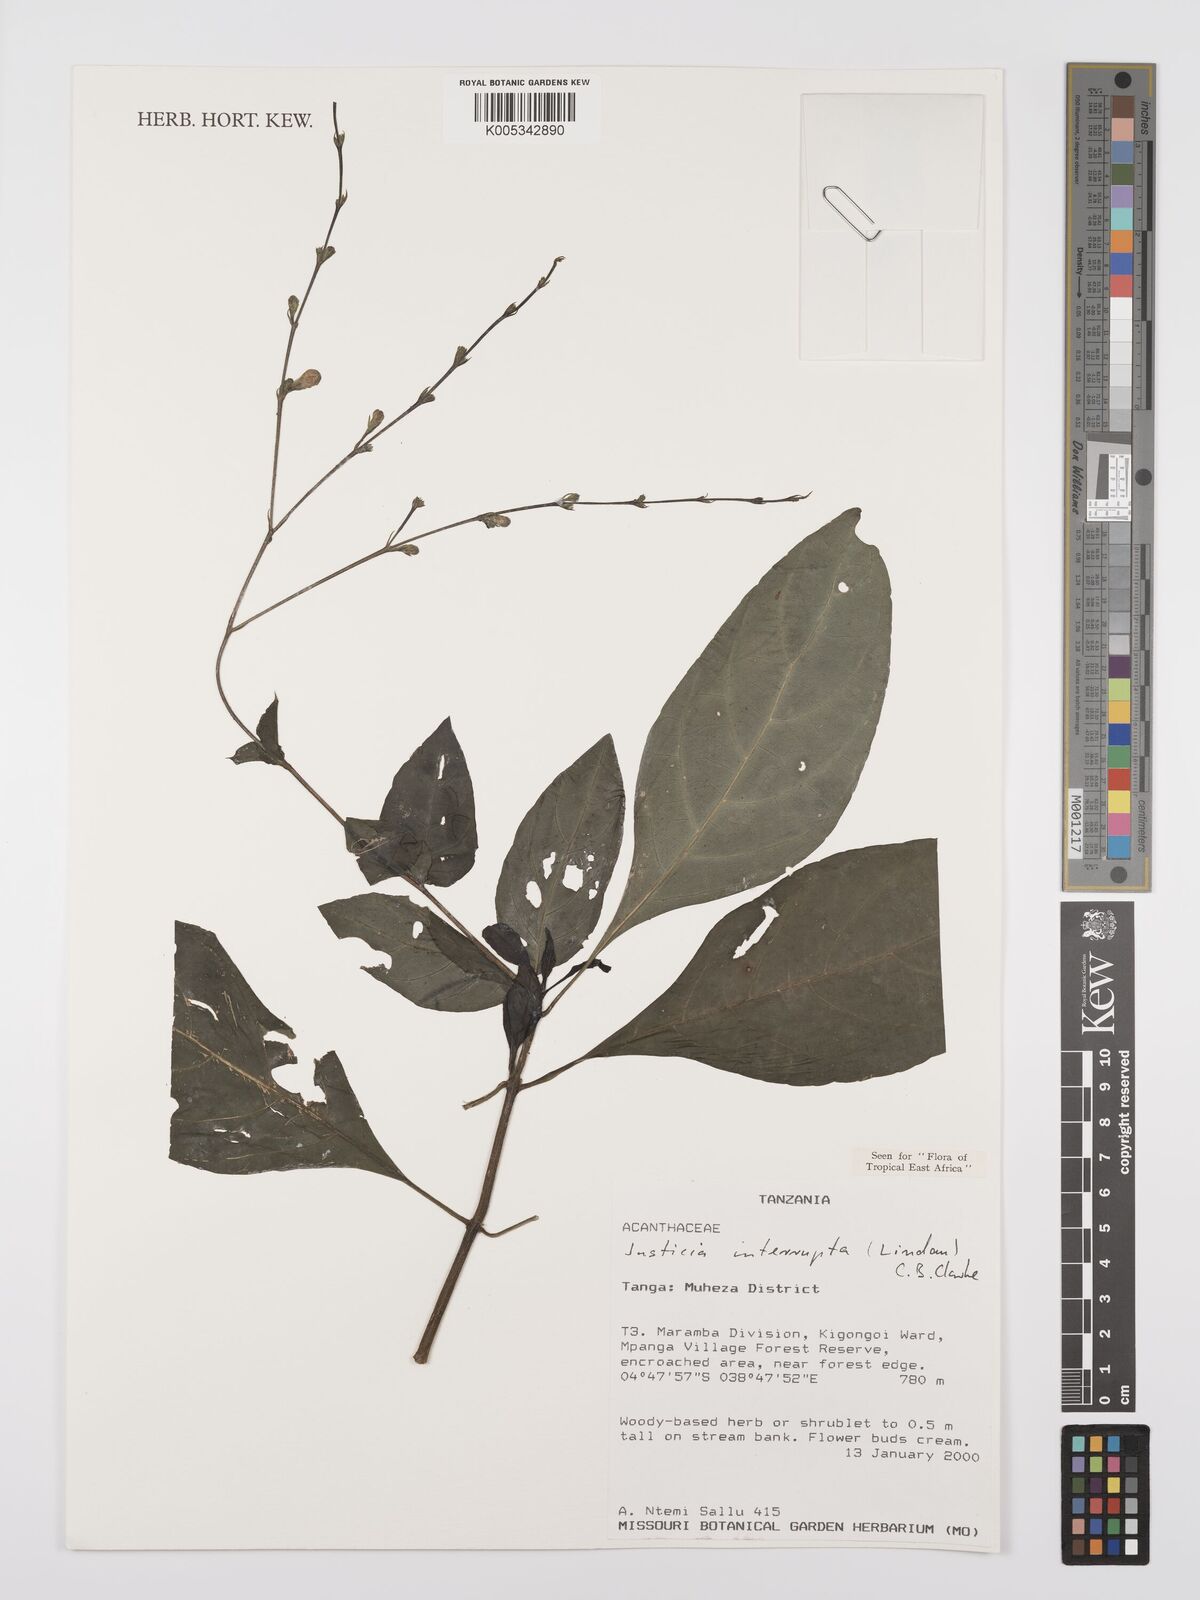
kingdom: Plantae
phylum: Tracheophyta
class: Magnoliopsida
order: Lamiales
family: Acanthaceae
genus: Justicia
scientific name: Justicia plectranthoides
